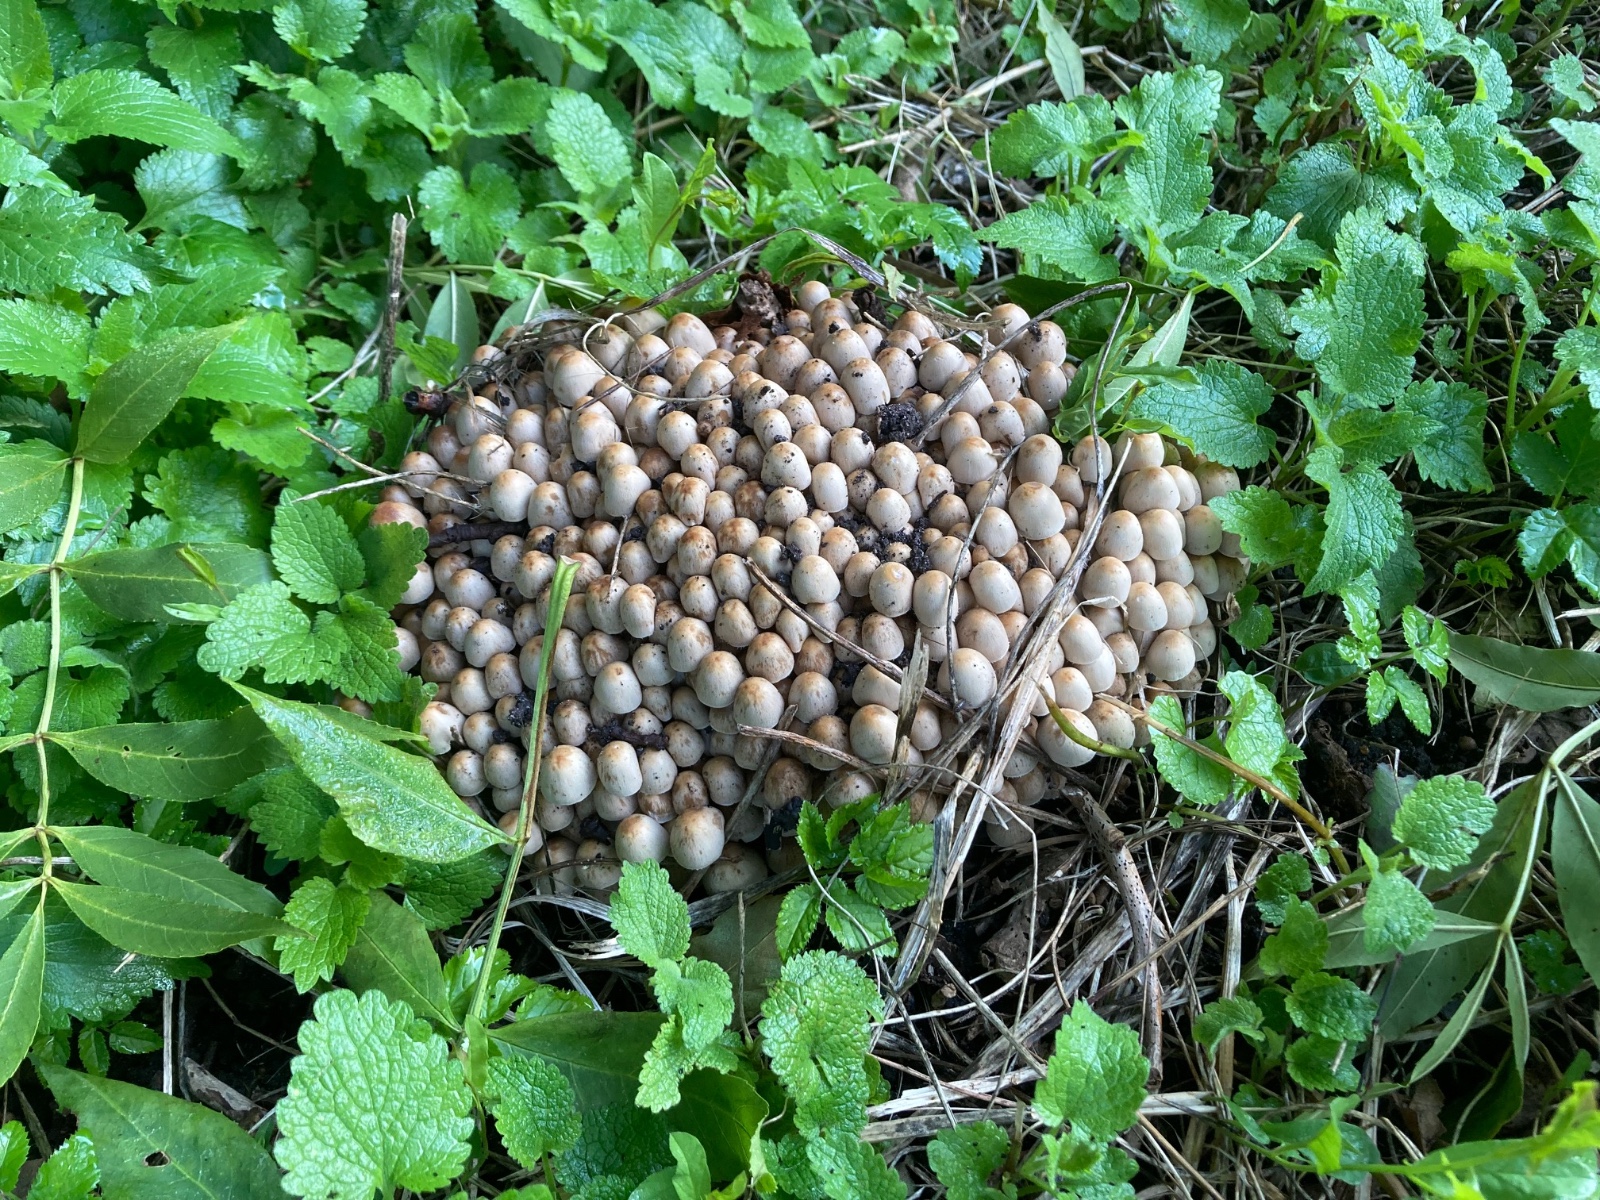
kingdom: Fungi
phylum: Basidiomycota
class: Agaricomycetes
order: Agaricales
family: Psathyrellaceae
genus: Britzelmayria
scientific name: Britzelmayria multipedata
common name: knippe-mørkhat
